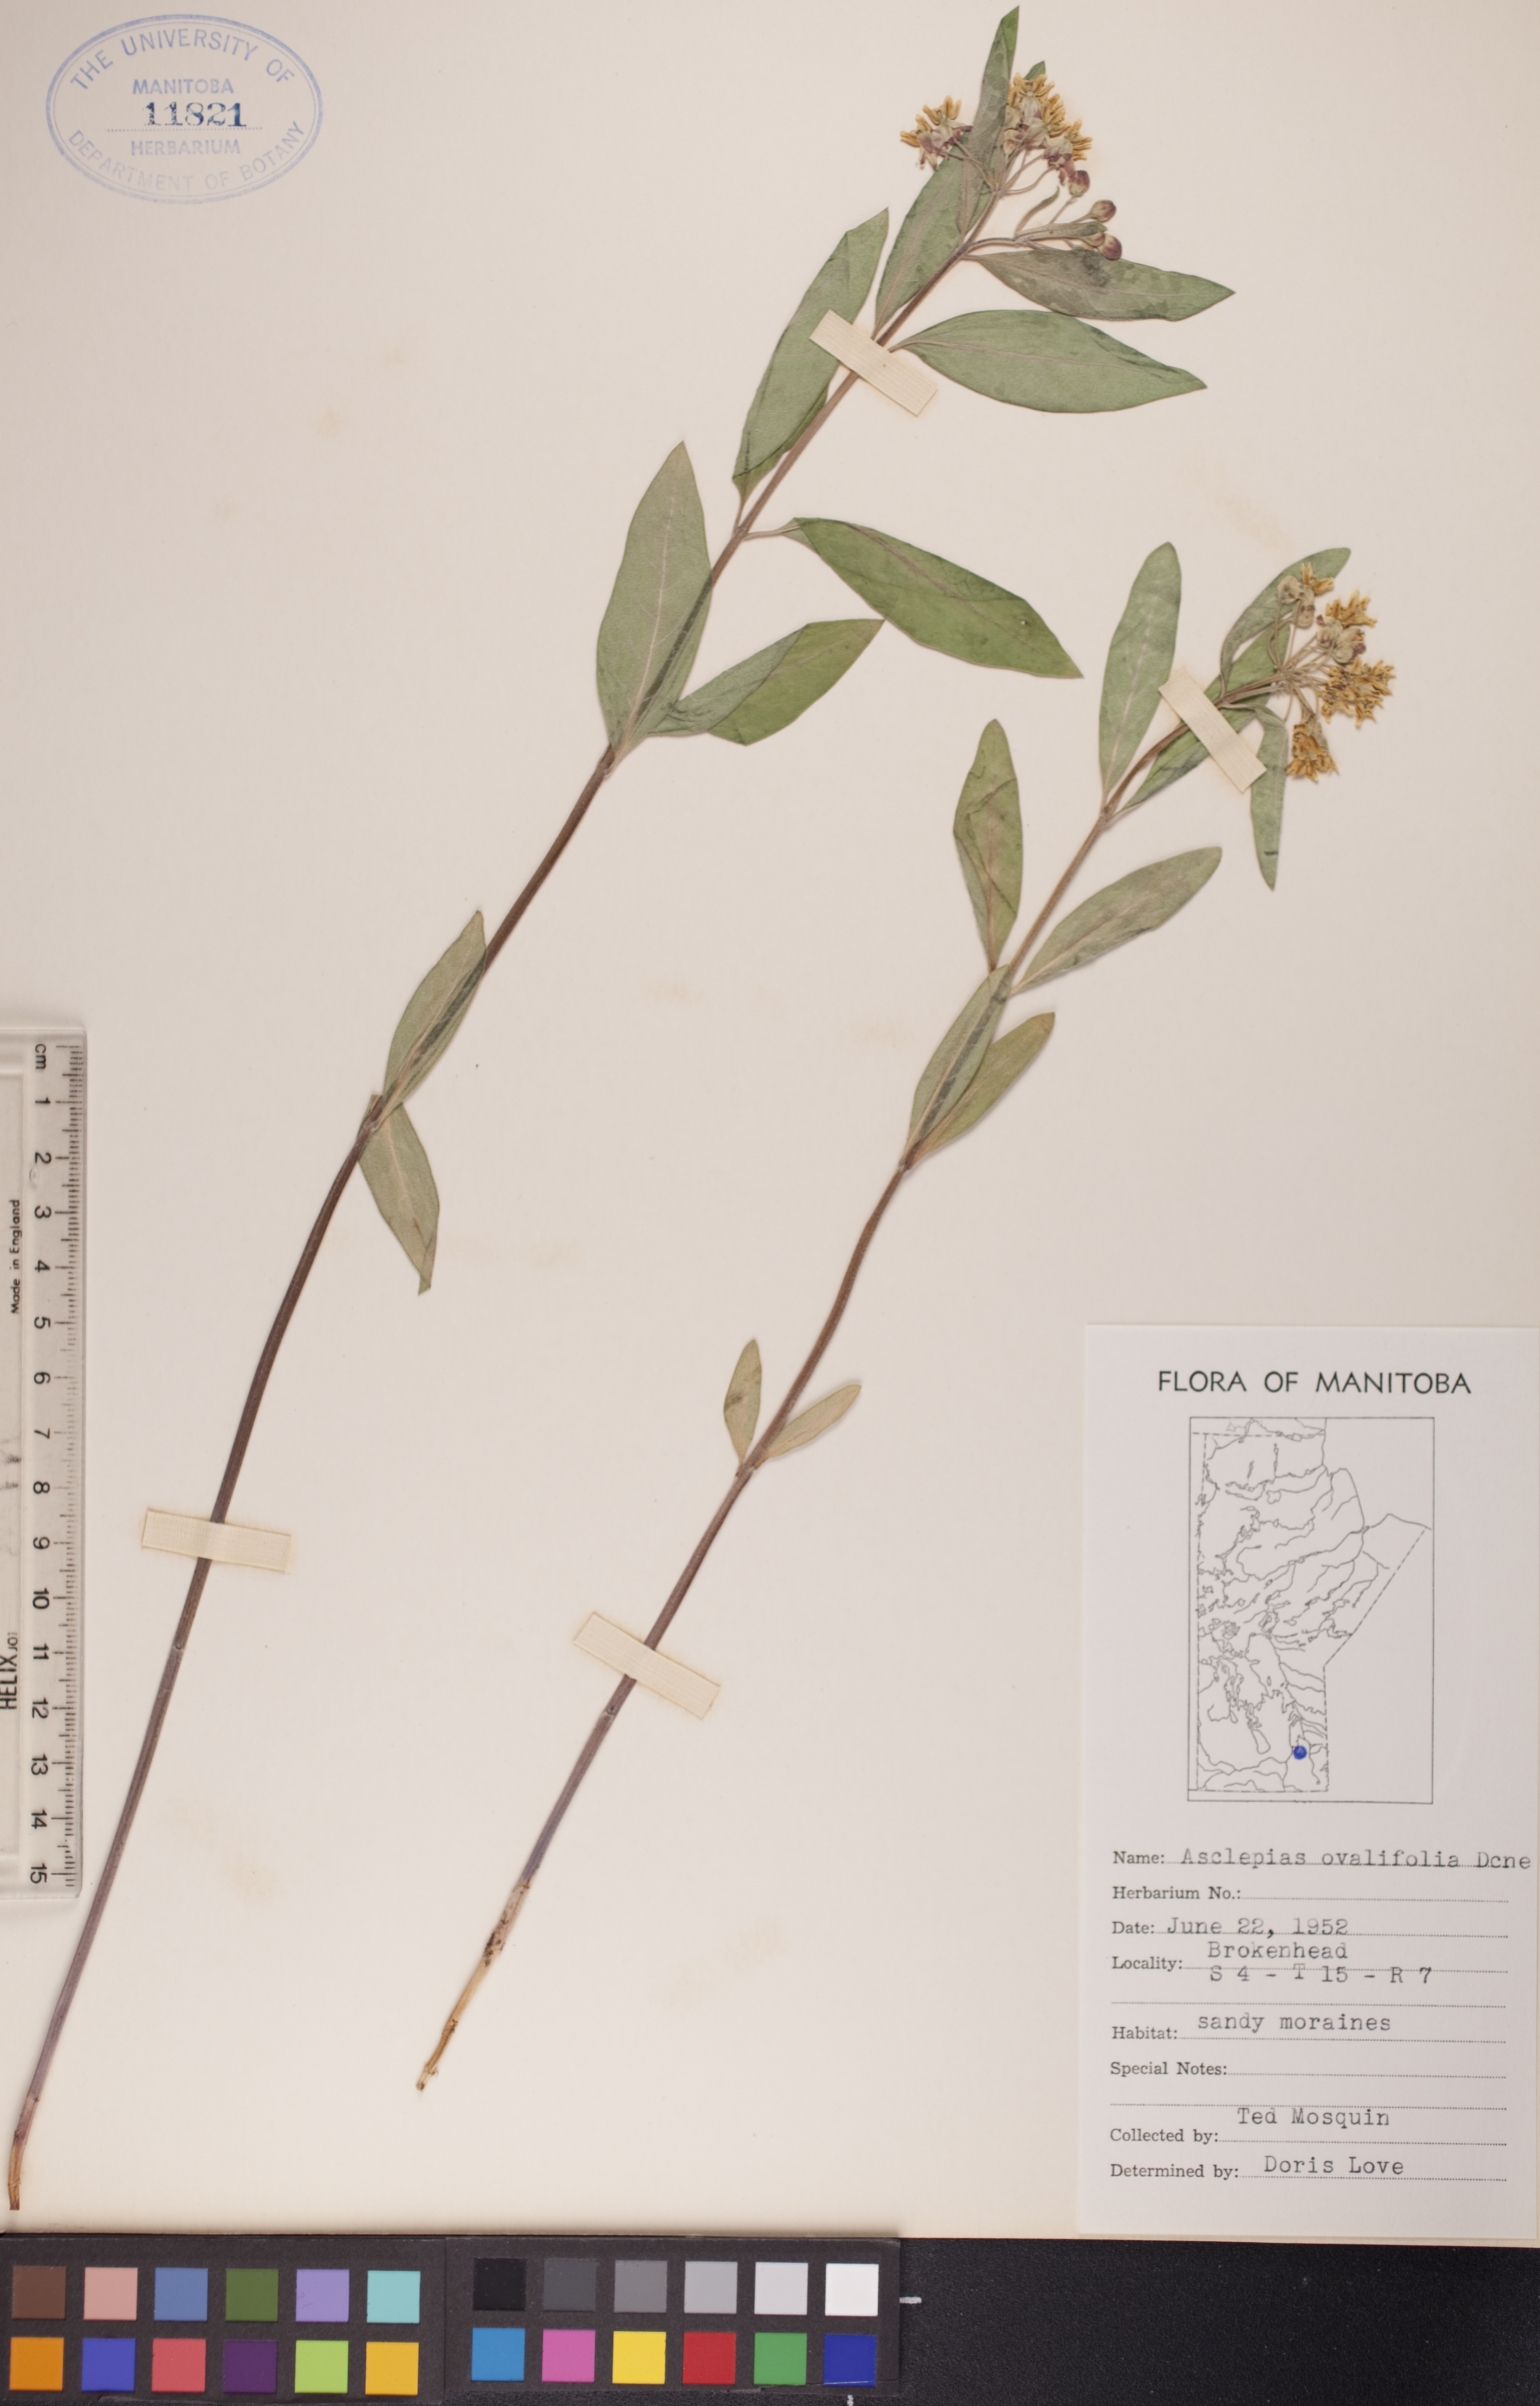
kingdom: Plantae
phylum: Tracheophyta
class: Magnoliopsida
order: Gentianales
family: Apocynaceae
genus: Asclepias
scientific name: Asclepias ovalifolia
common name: Dwarf milkweed
